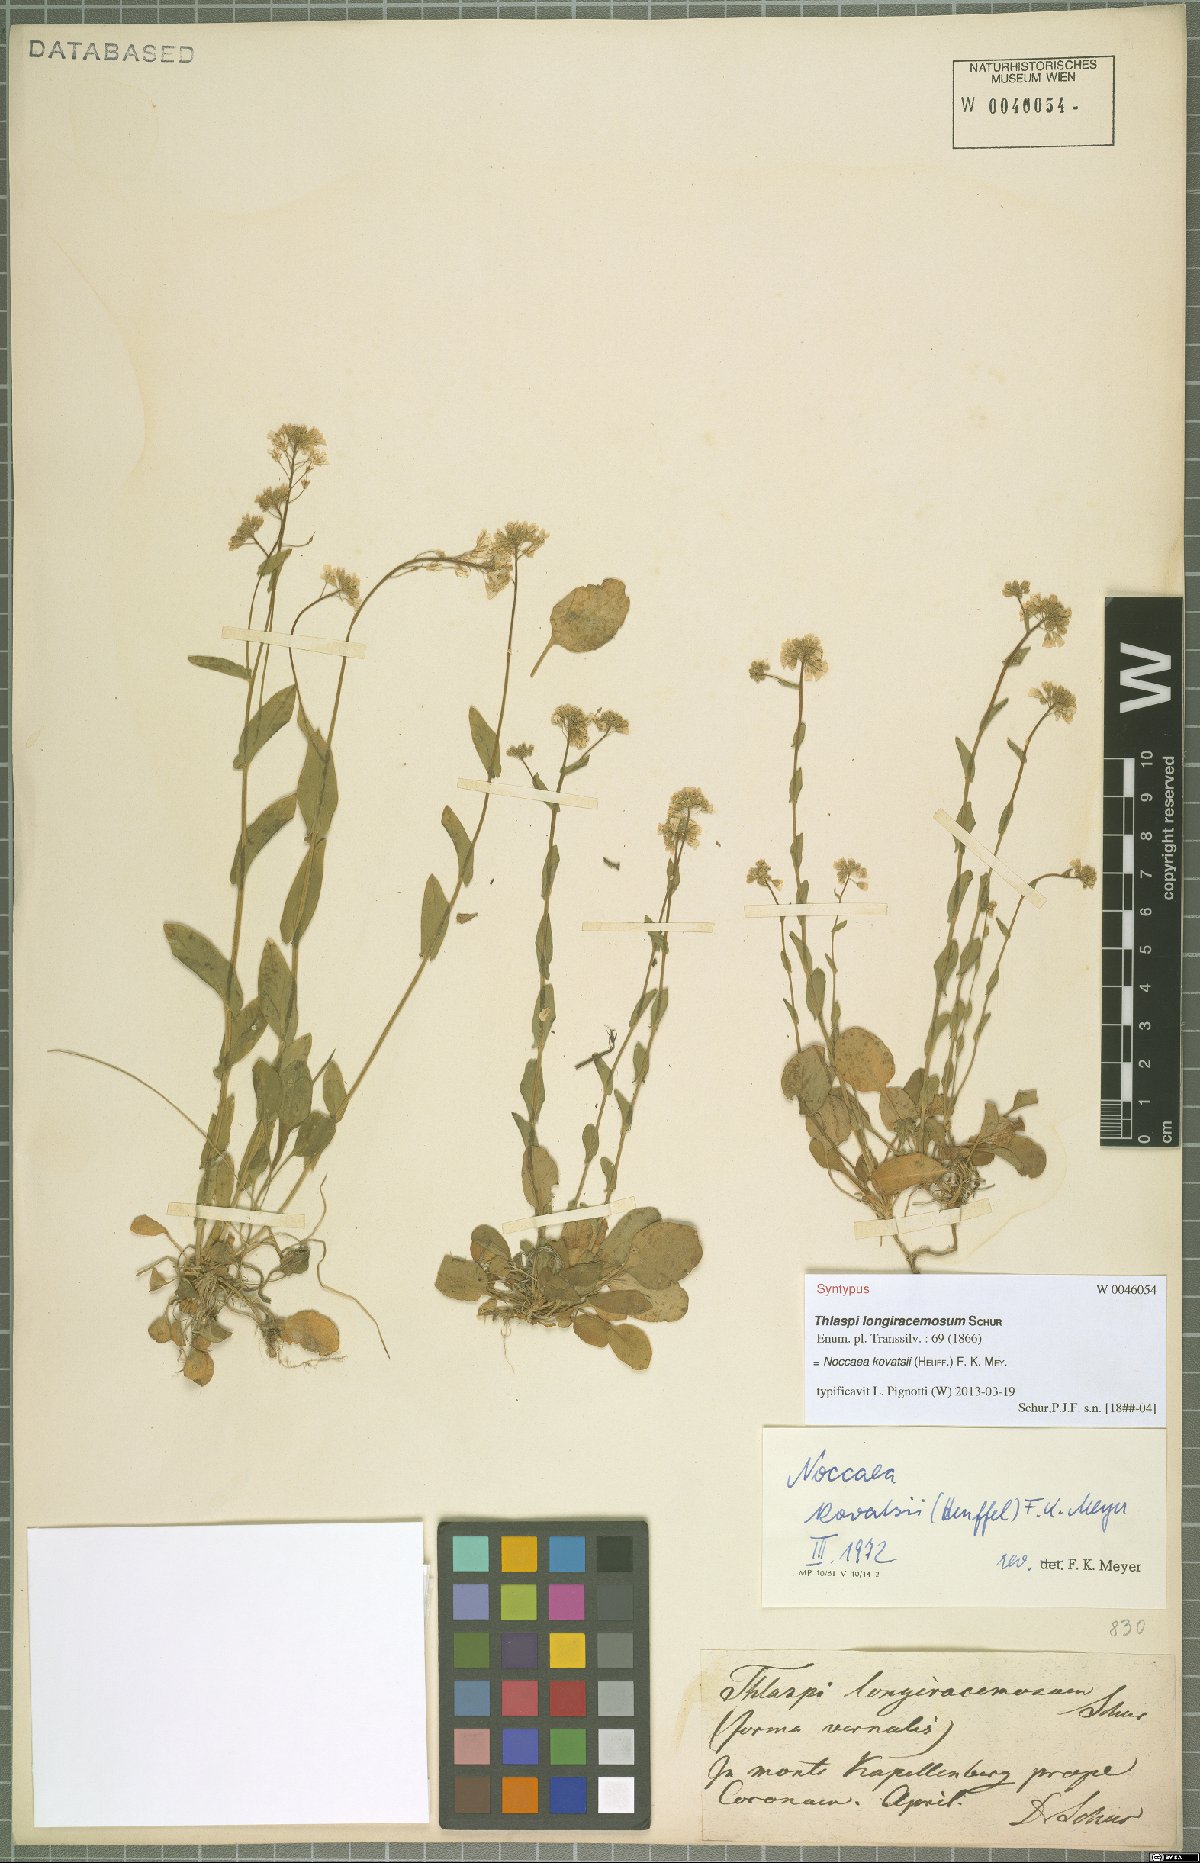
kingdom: Plantae
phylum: Tracheophyta
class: Magnoliopsida
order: Brassicales
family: Brassicaceae
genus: Noccaea
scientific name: Noccaea kovatsii
